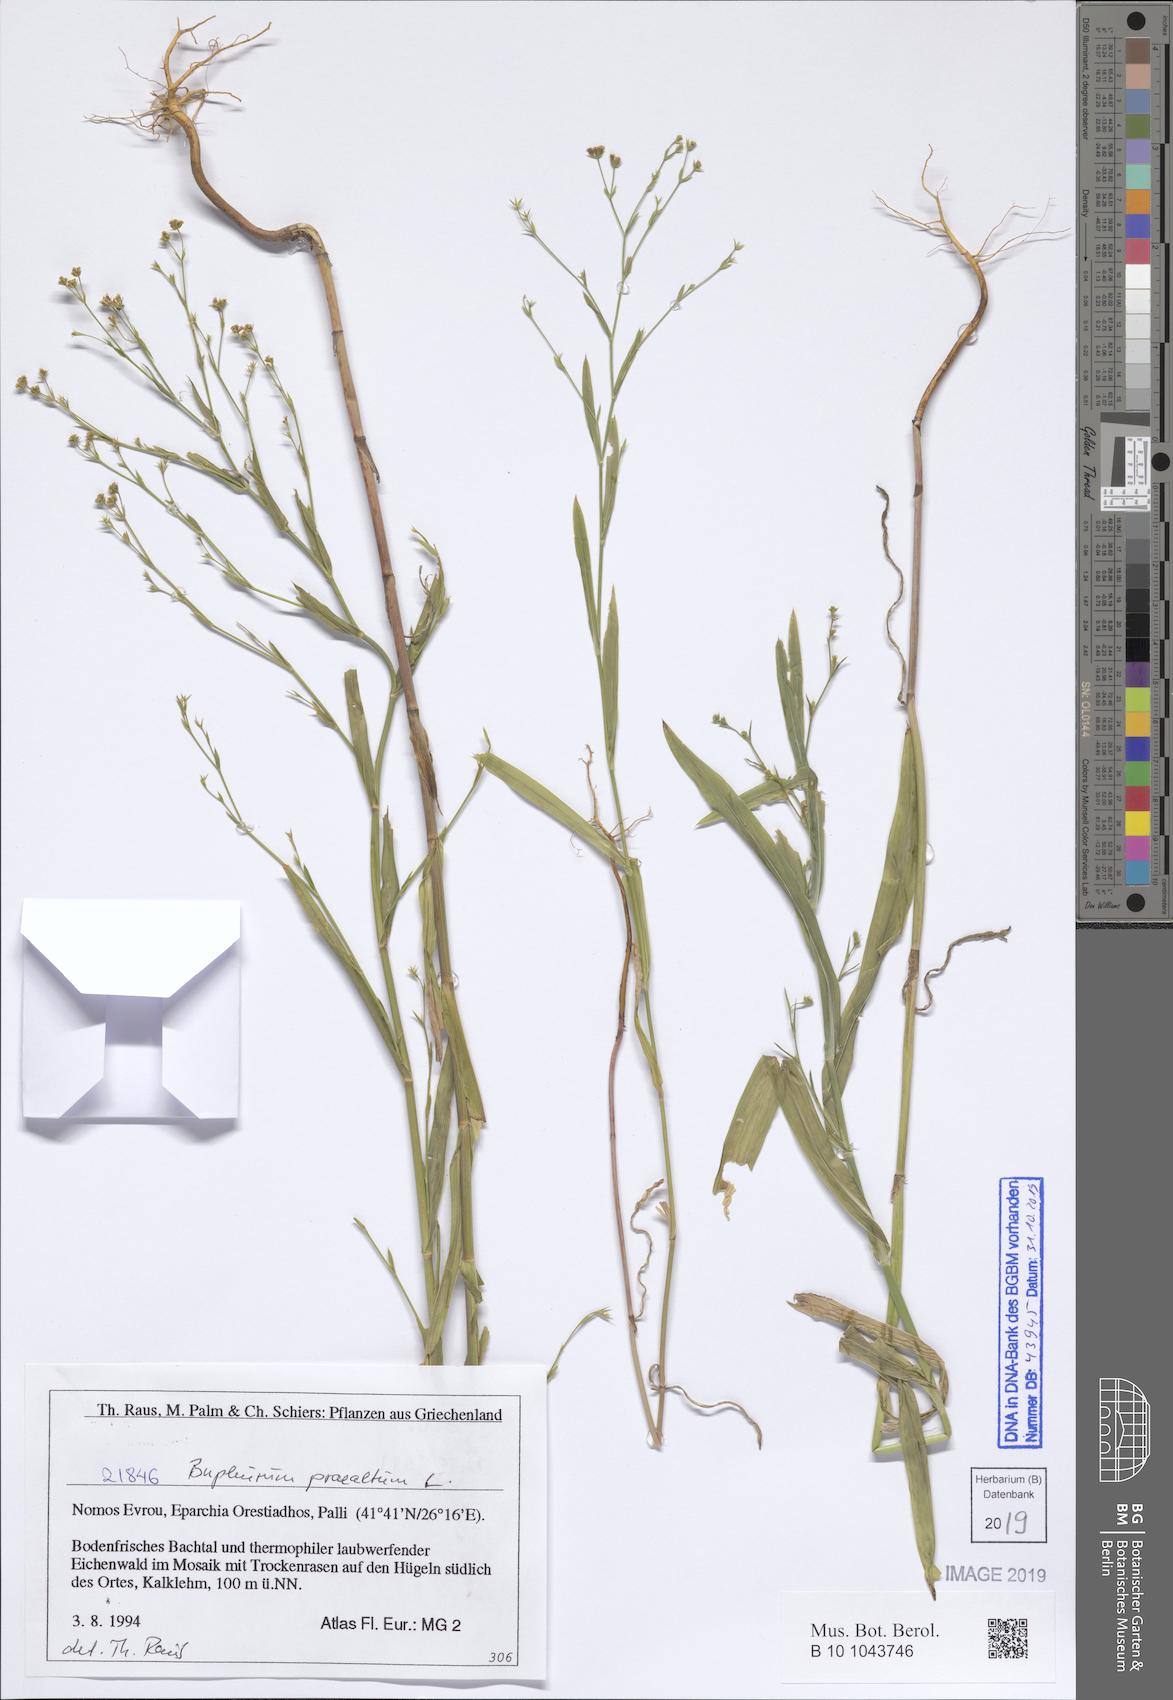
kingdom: Plantae
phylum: Tracheophyta
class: Magnoliopsida
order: Apiales
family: Apiaceae
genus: Bupleurum
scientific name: Bupleurum praealtum
